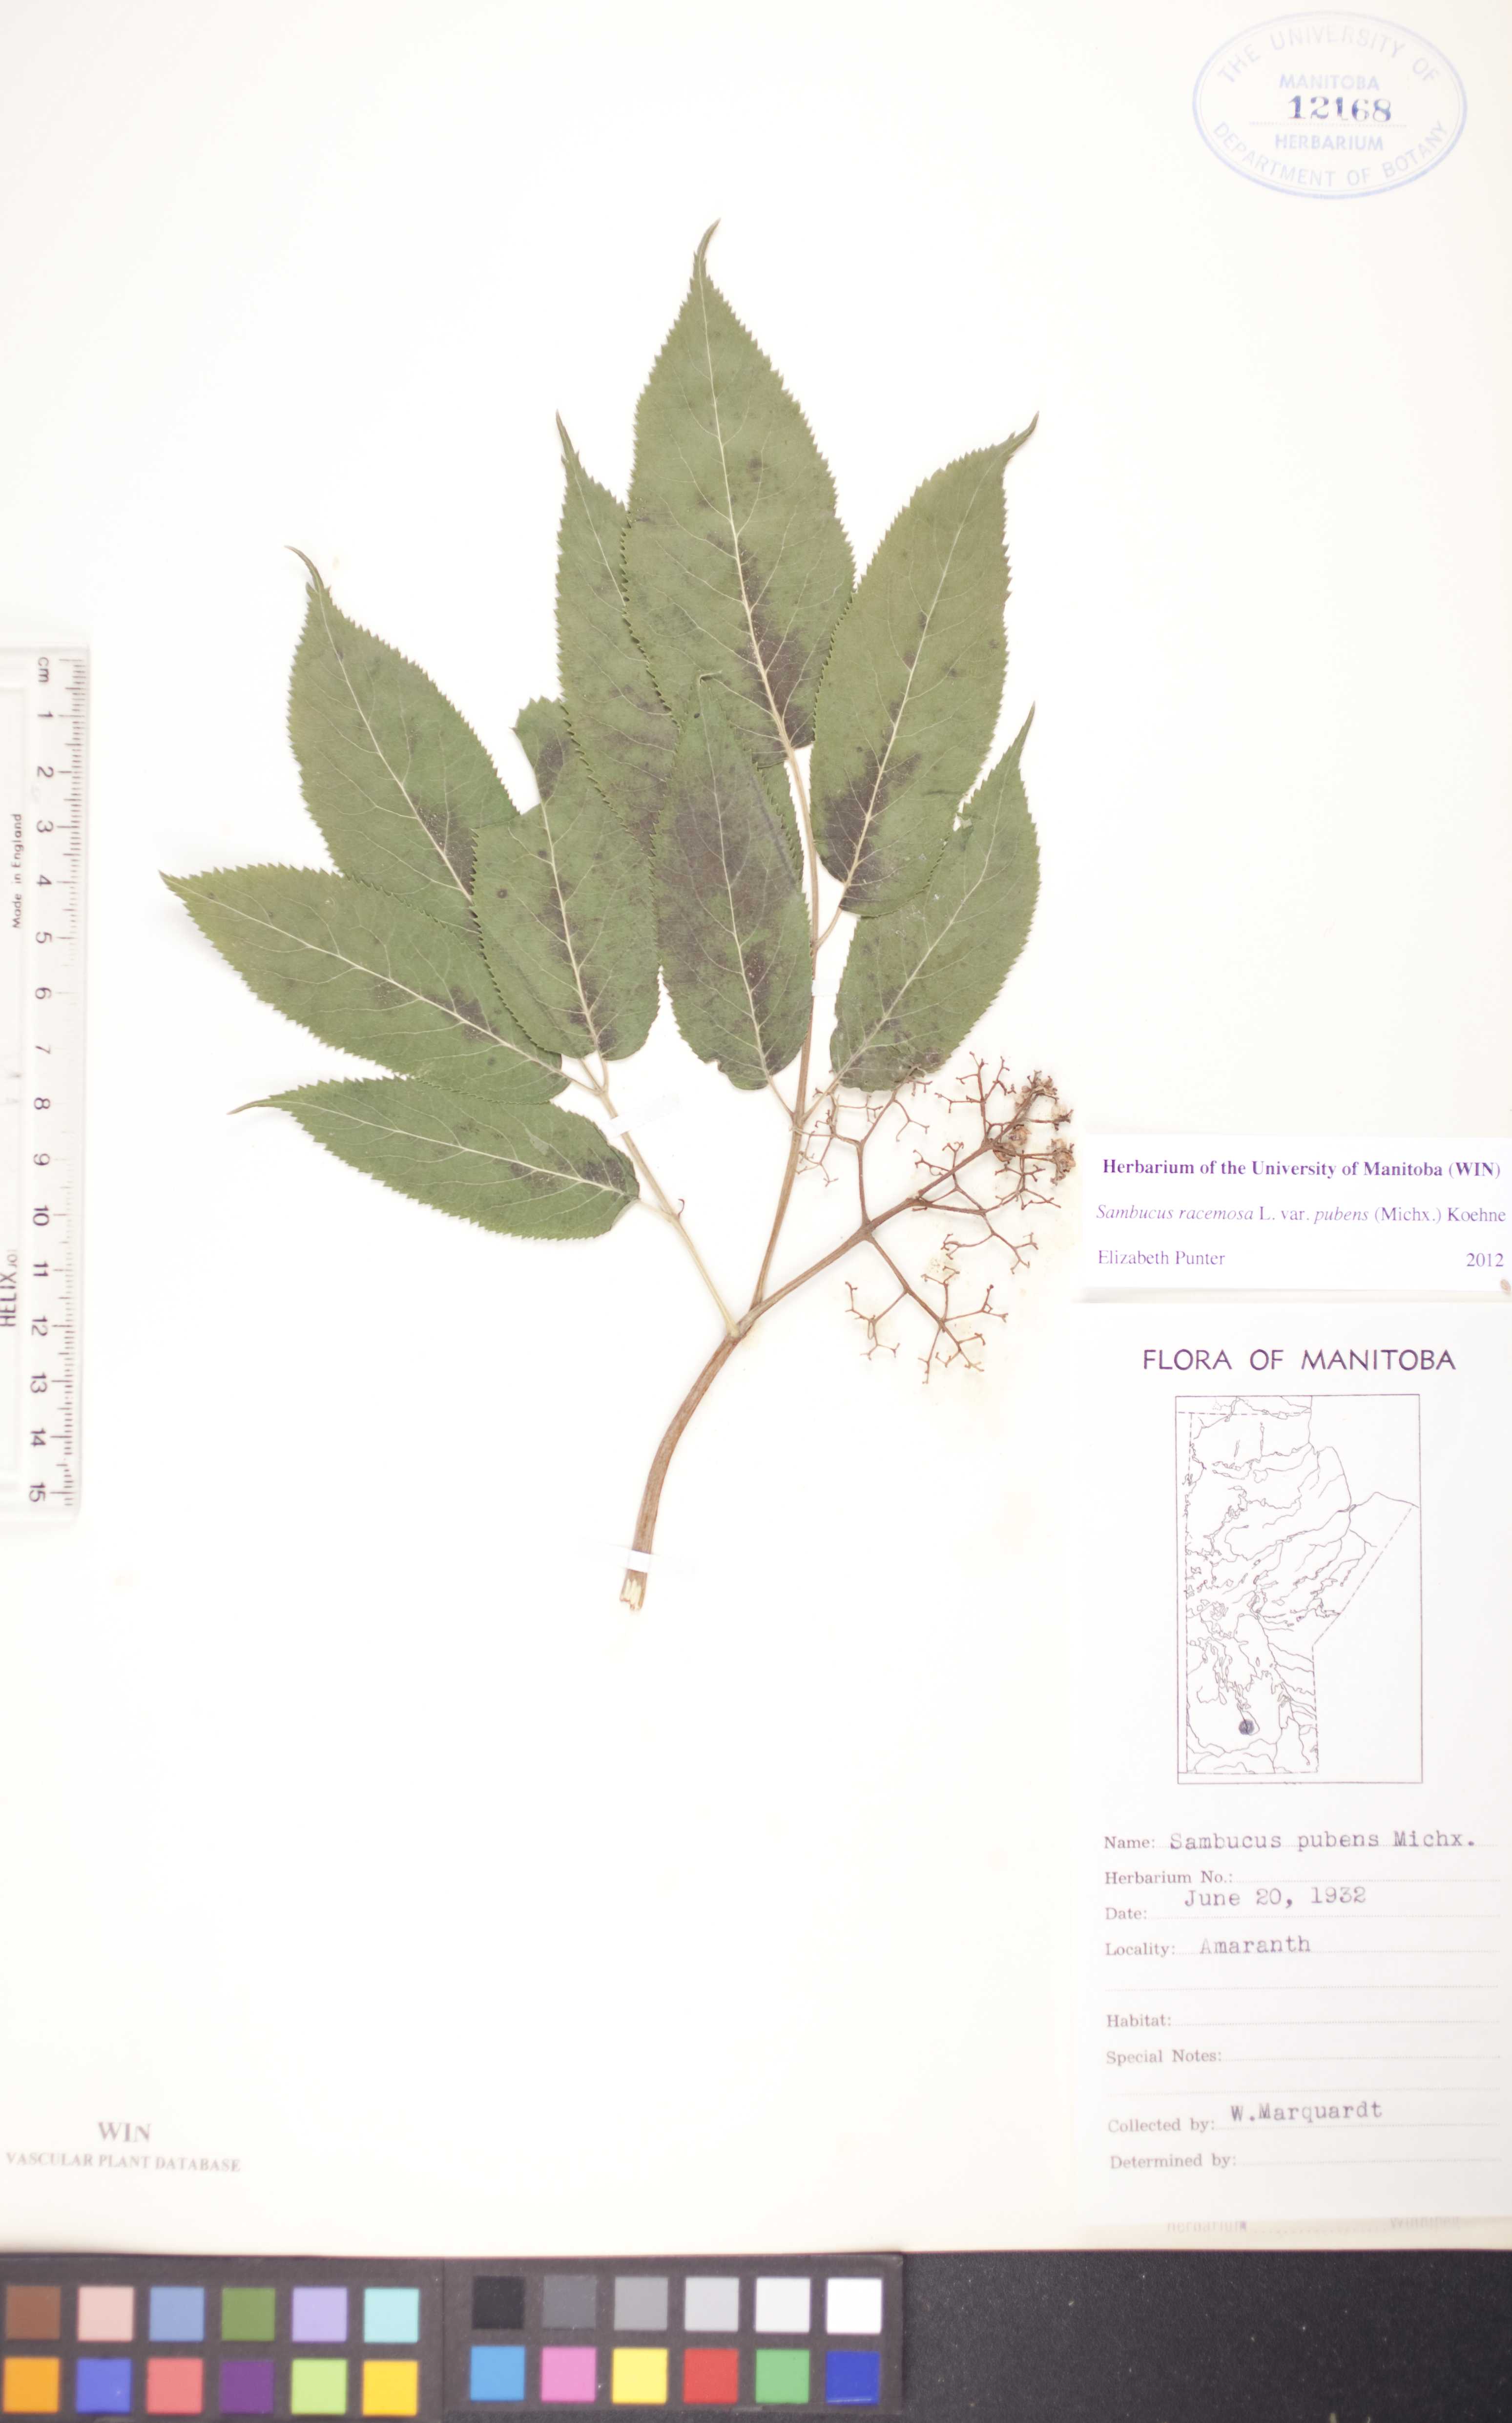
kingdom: Plantae
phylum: Tracheophyta
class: Magnoliopsida
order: Dipsacales
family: Viburnaceae
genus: Sambucus
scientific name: Sambucus racemosa
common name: Red-berried elder
